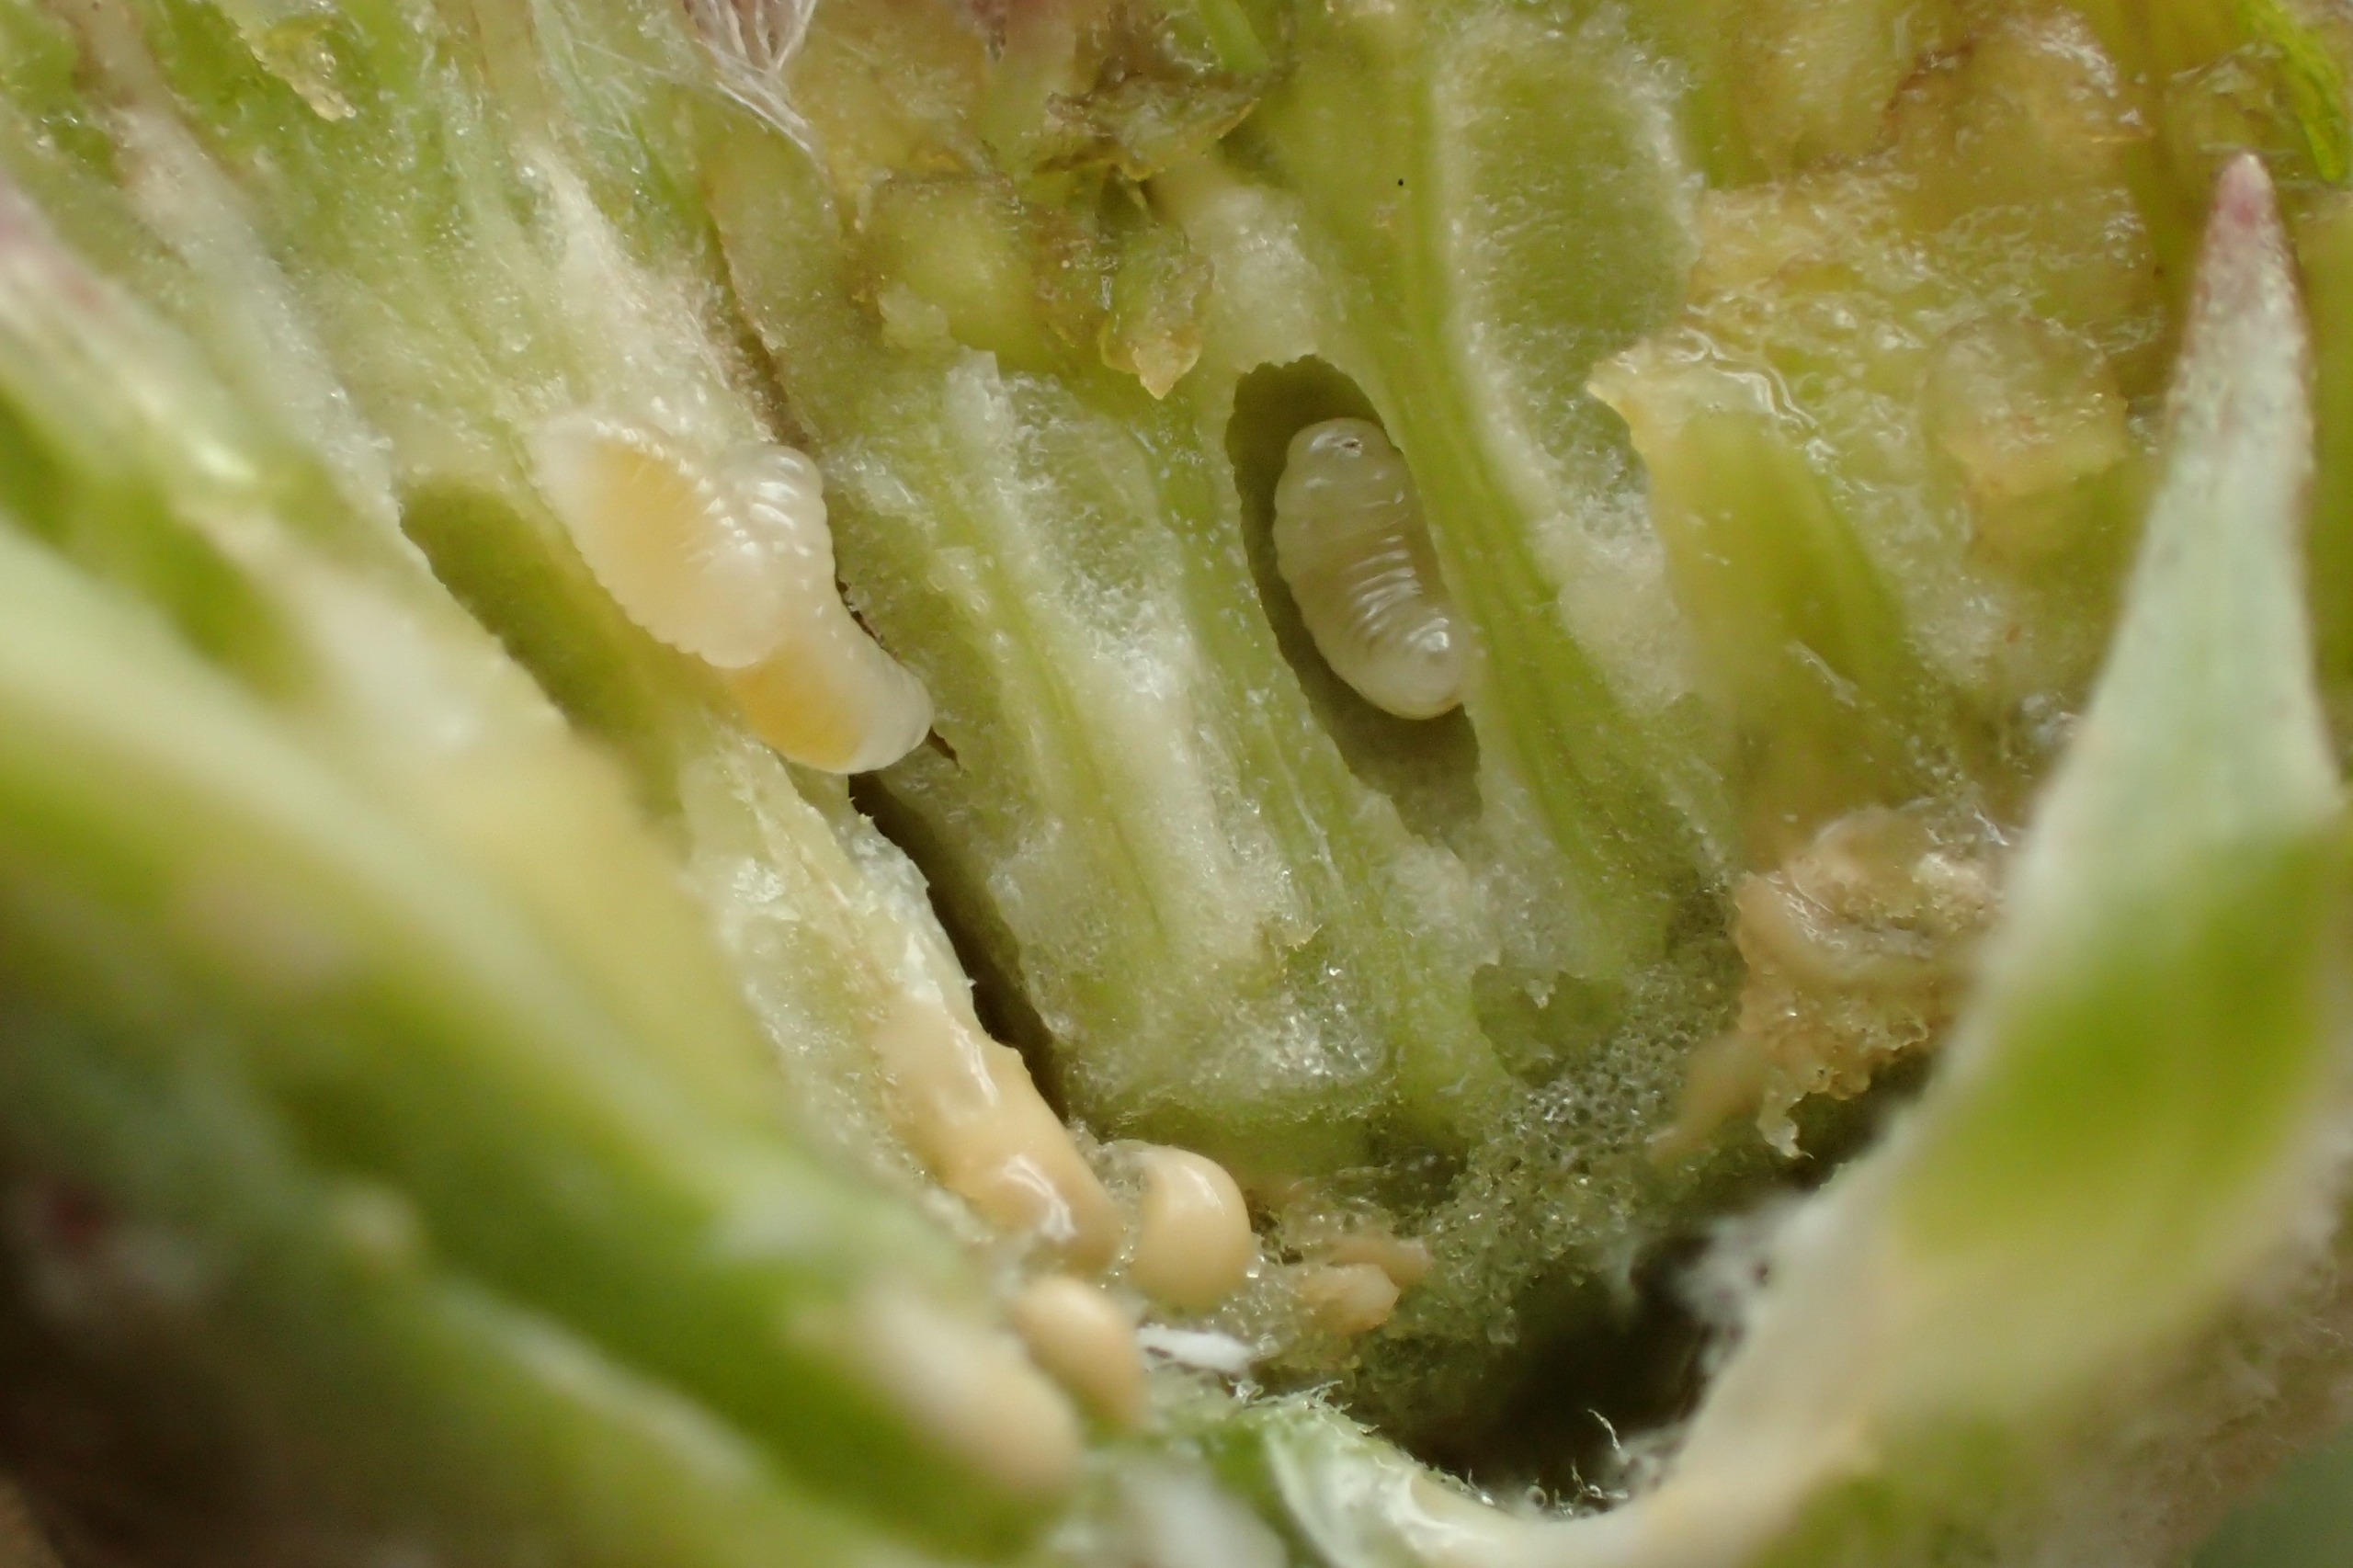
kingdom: Animalia
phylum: Arthropoda
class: Insecta
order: Hymenoptera
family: Cynipidae
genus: Aulacidea
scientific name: Aulacidea abdominalis
